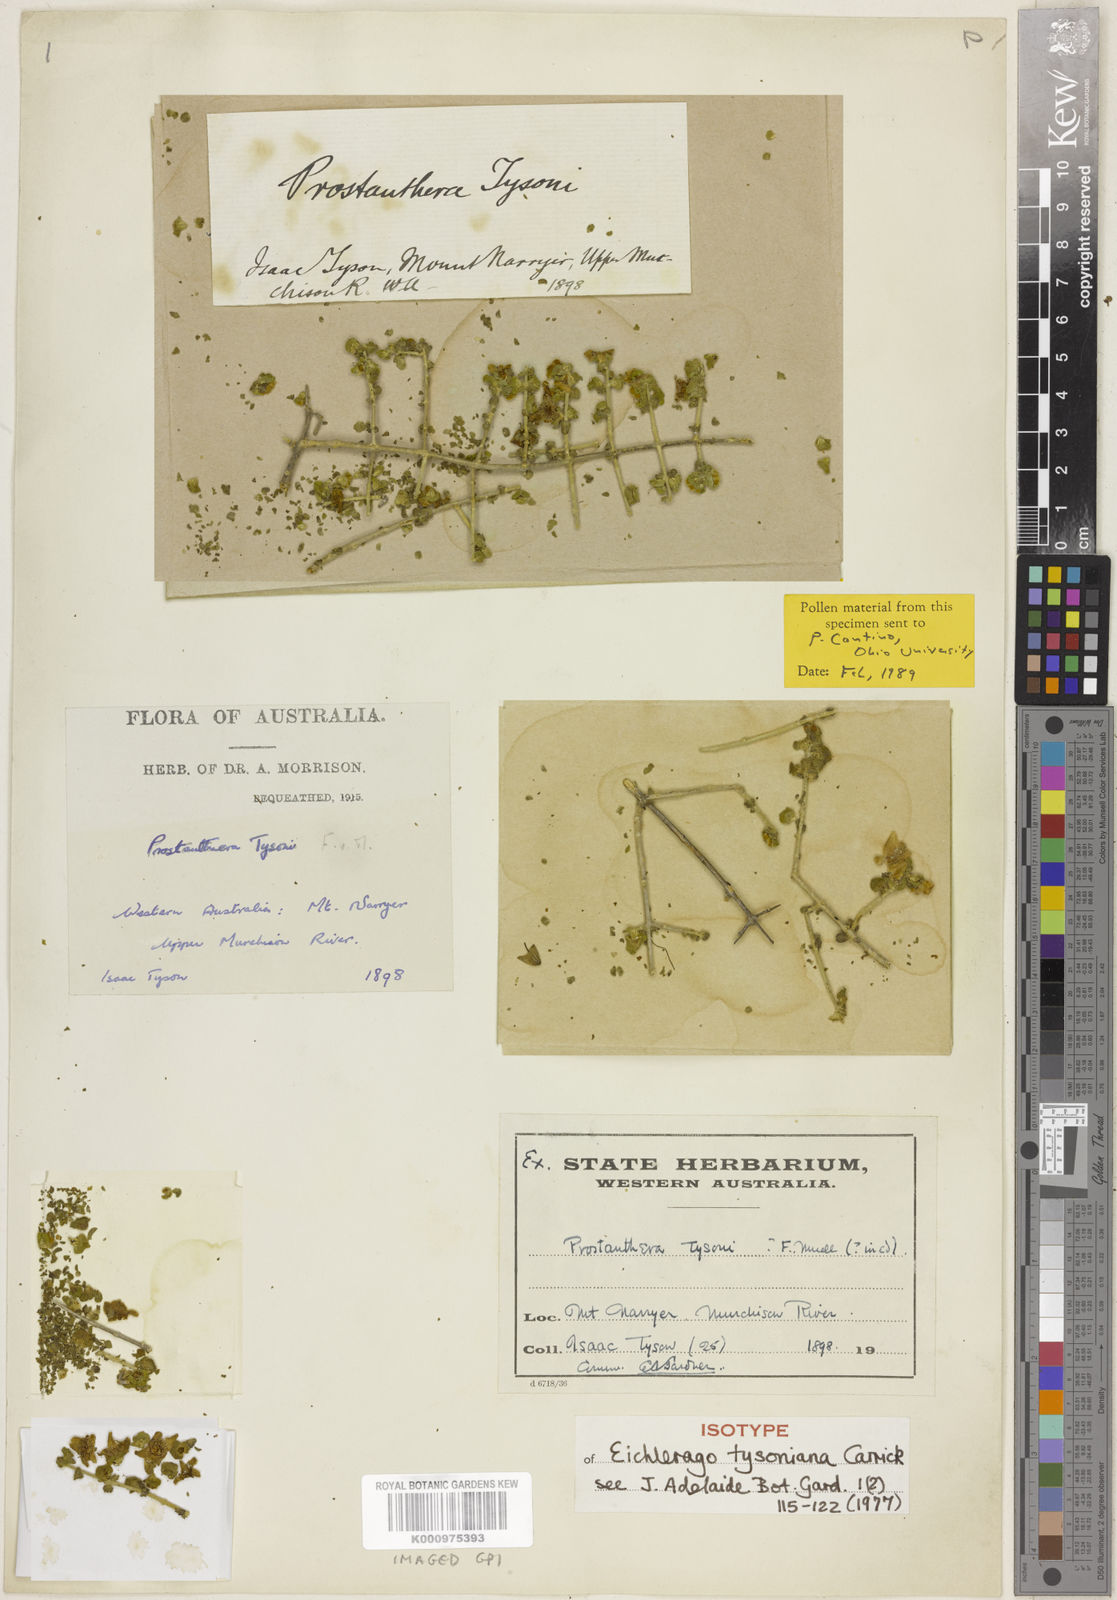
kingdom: Plantae
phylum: Tracheophyta
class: Magnoliopsida
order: Lamiales
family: Lamiaceae
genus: Prostanthera
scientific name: Prostanthera tysoniana
